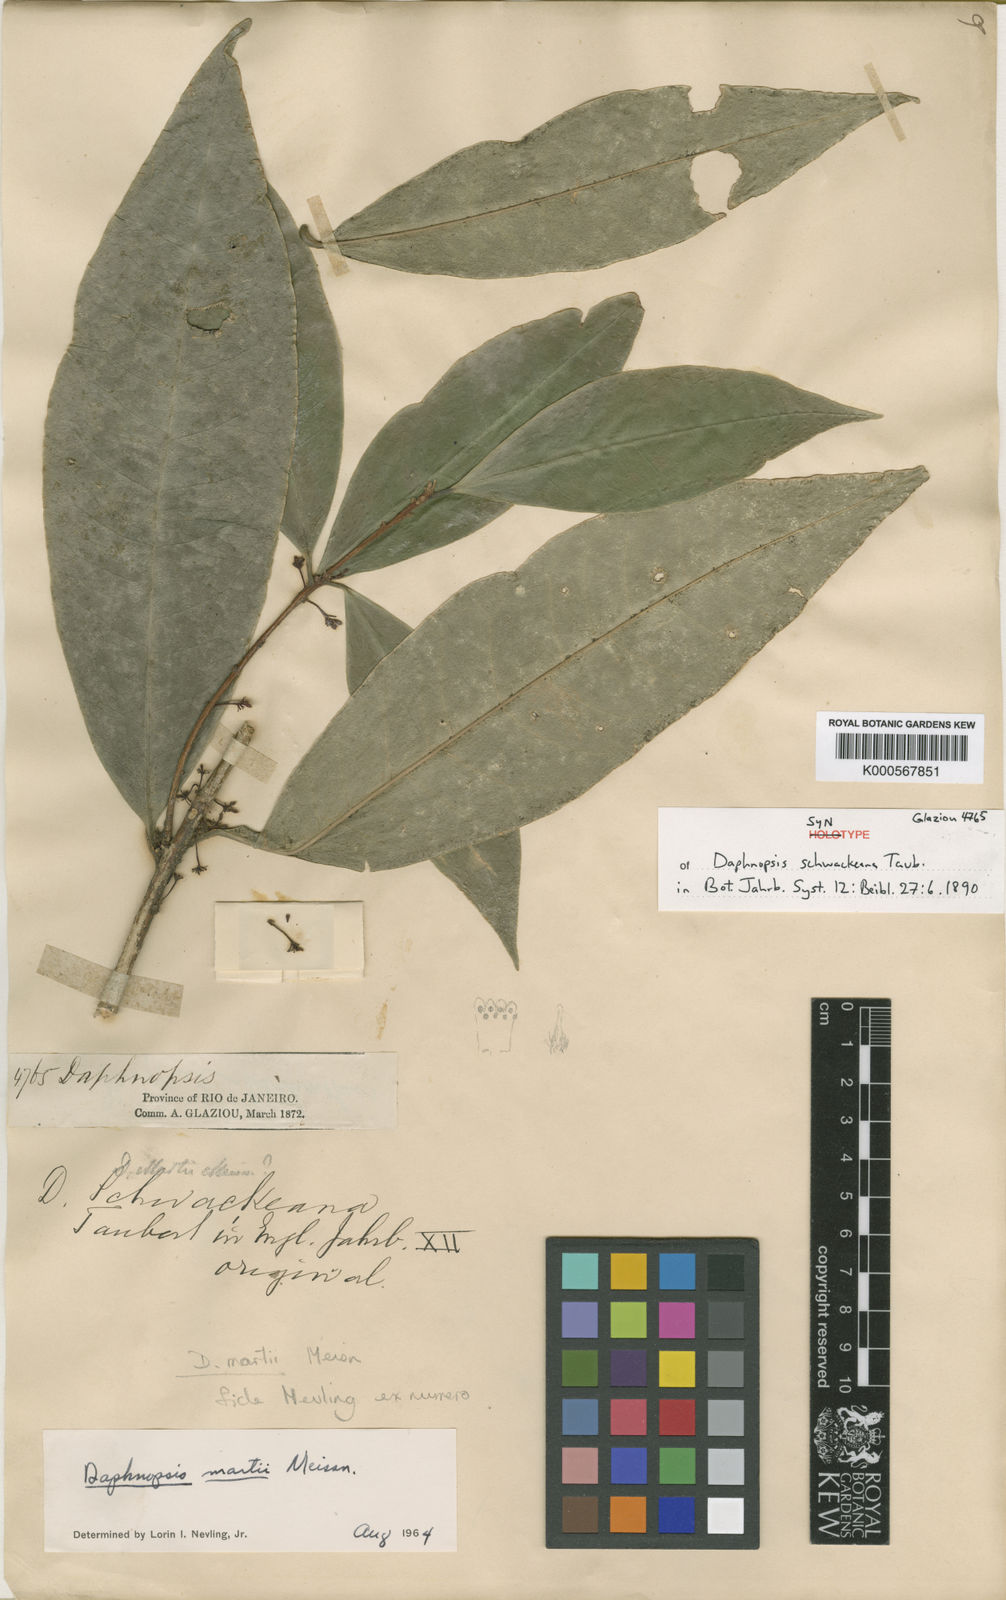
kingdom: Plantae
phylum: Tracheophyta
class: Magnoliopsida
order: Malvales
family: Thymelaeaceae
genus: Daphnopsis
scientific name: Daphnopsis martii
